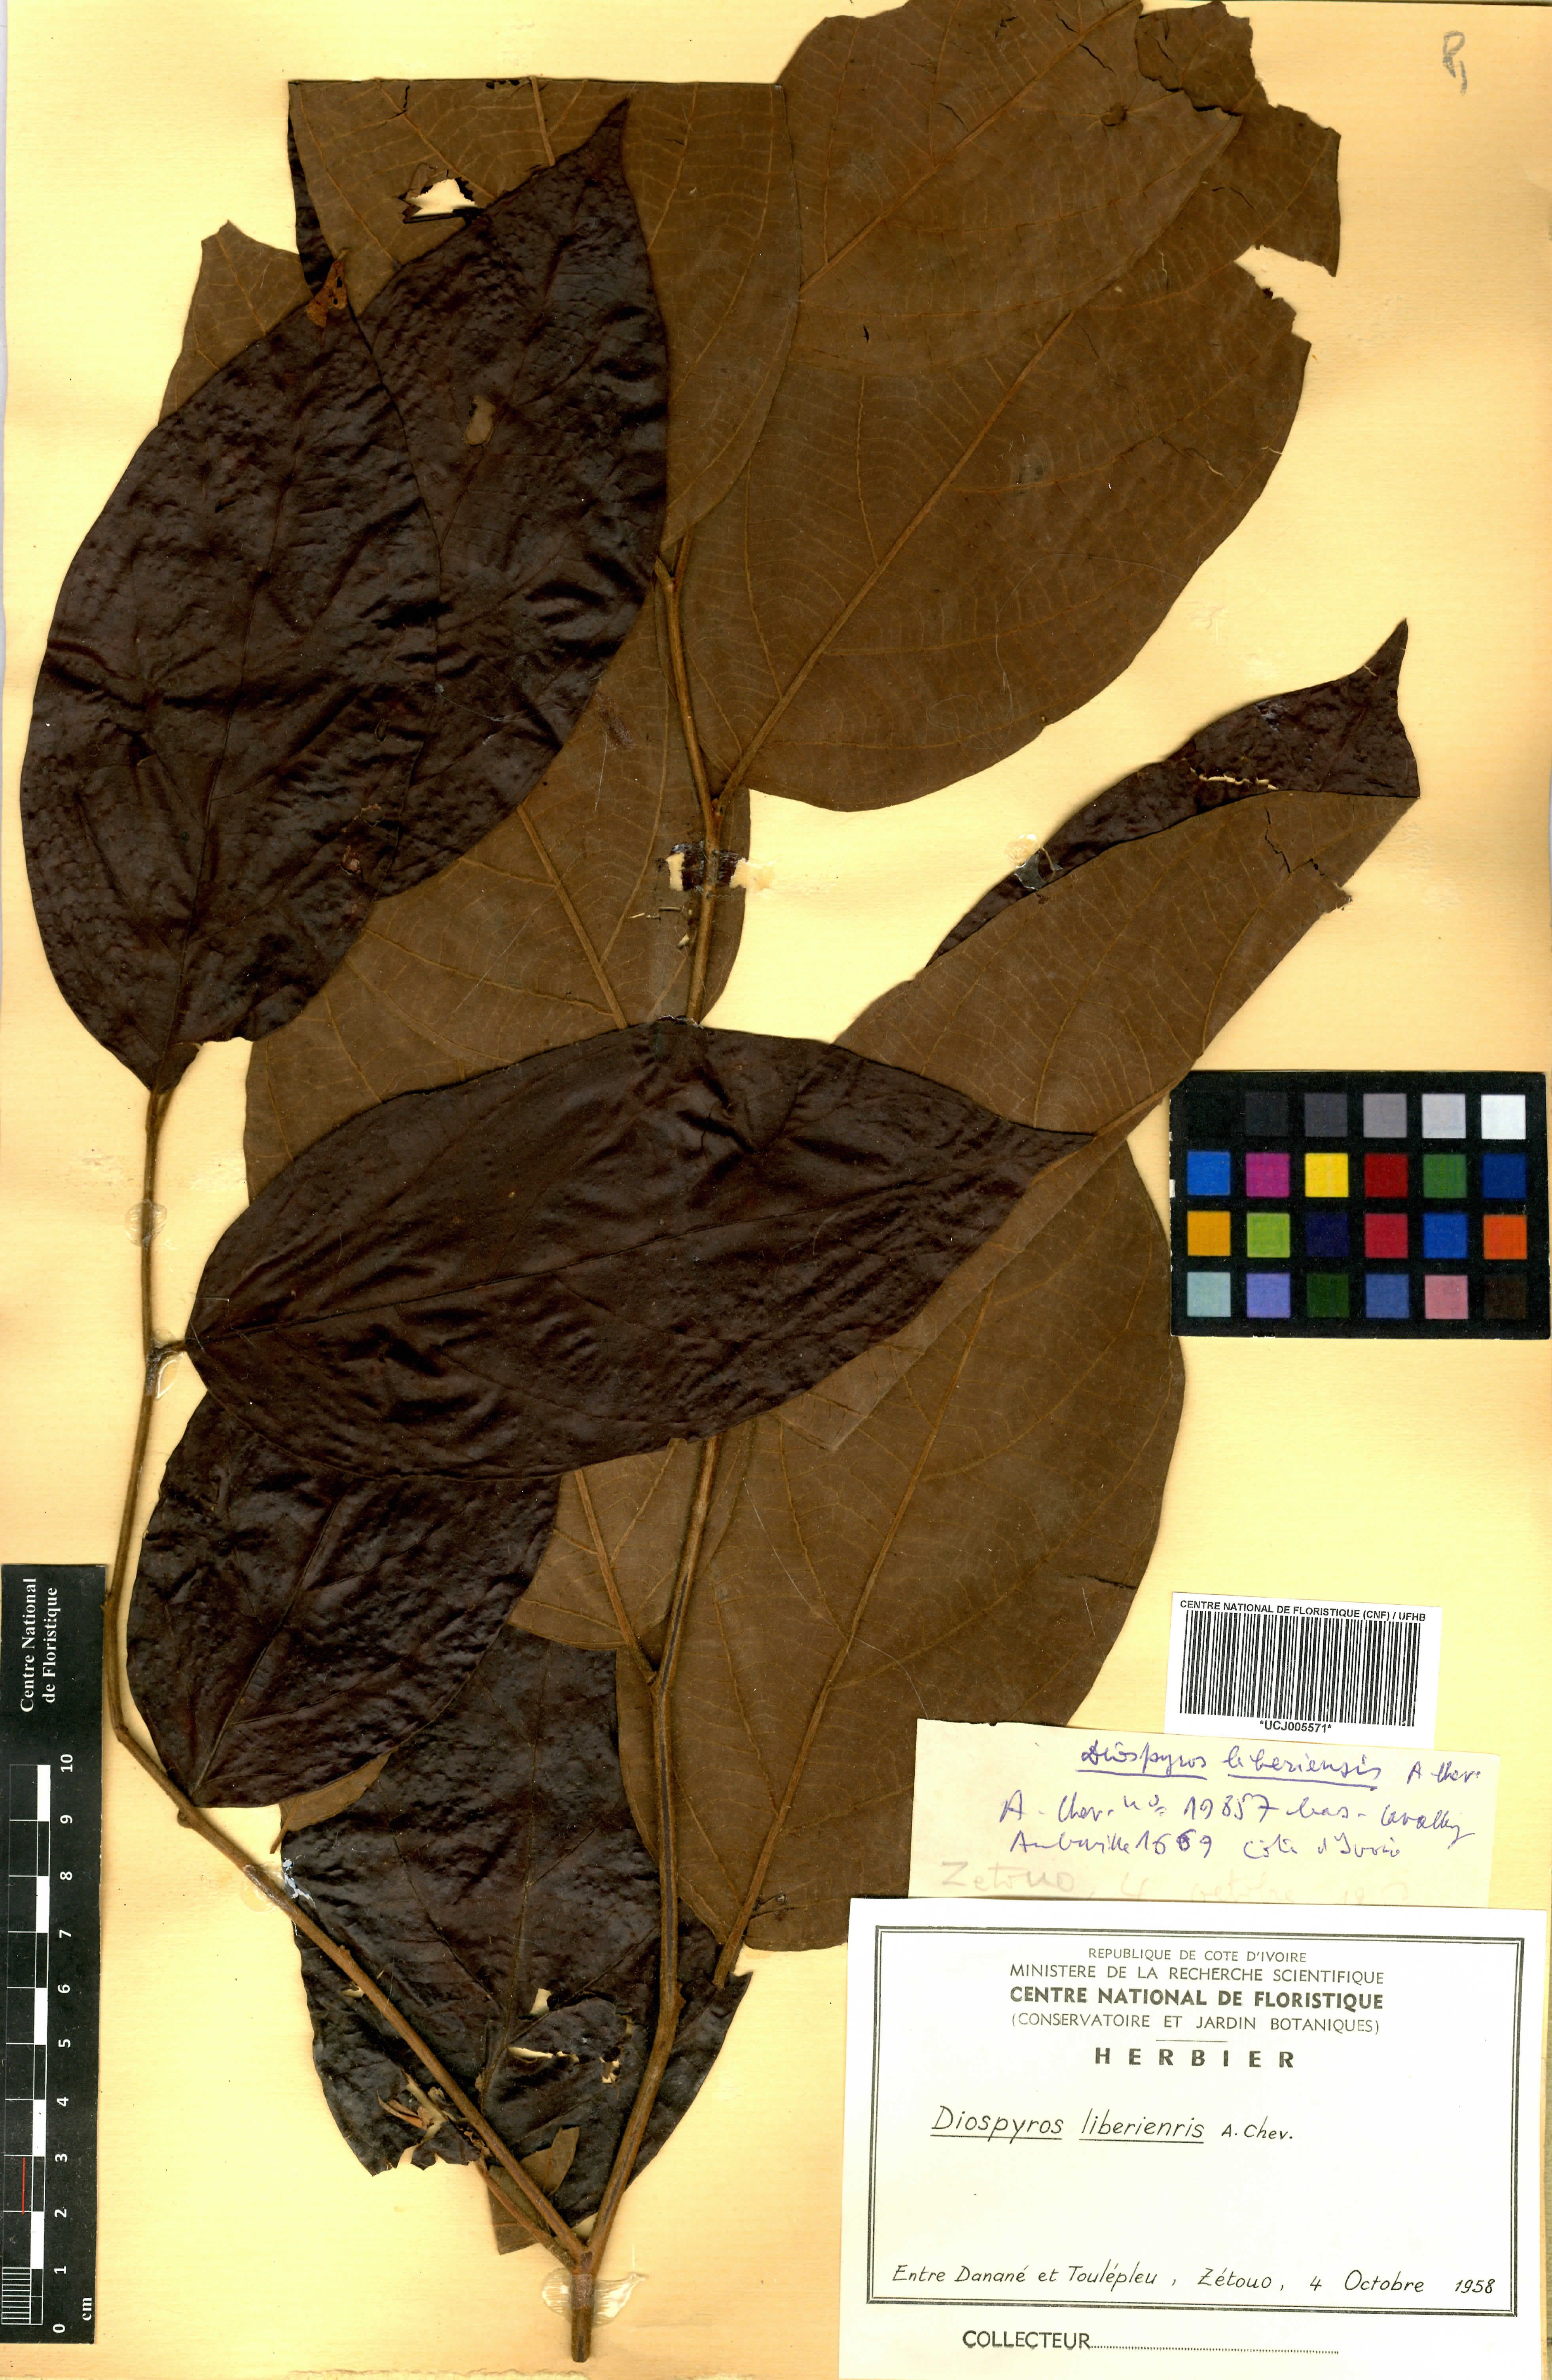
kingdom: Plantae
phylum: Tracheophyta
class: Magnoliopsida
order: Ericales
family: Ebenaceae
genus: Diospyros
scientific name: Diospyros liberiensis
